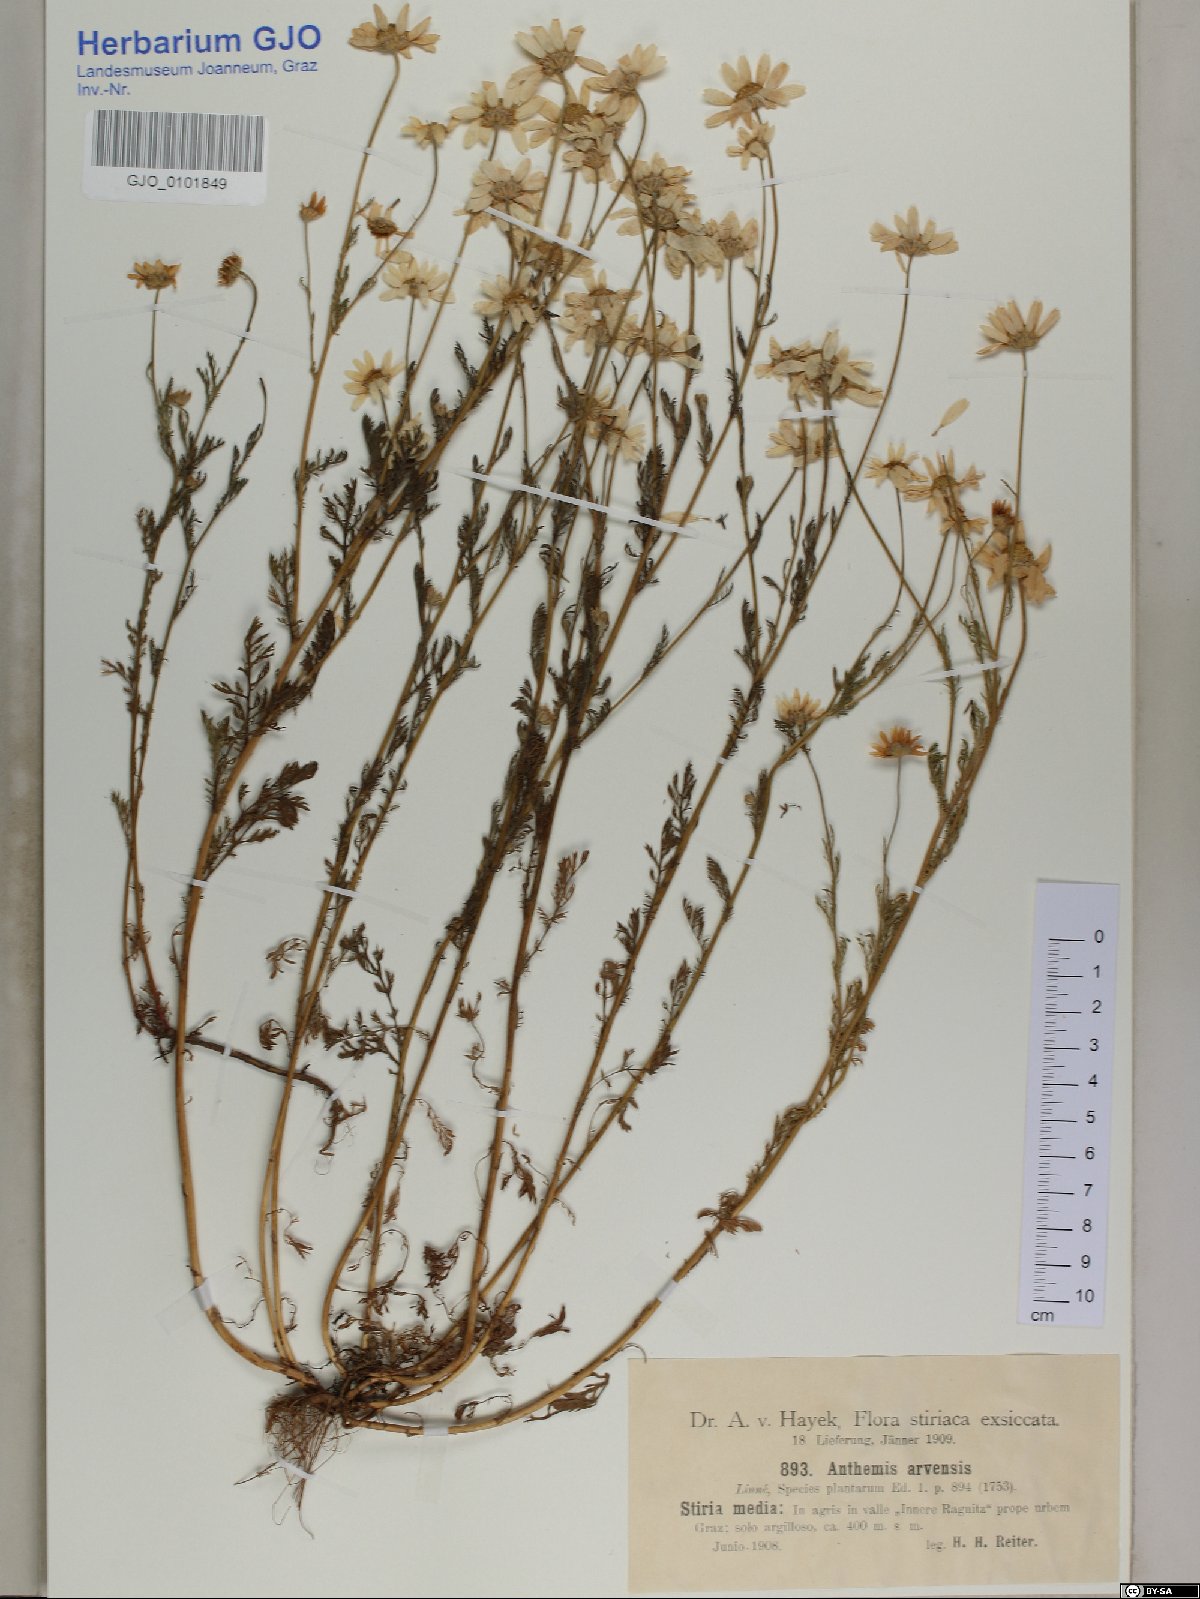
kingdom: Plantae
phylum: Tracheophyta
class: Magnoliopsida
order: Asterales
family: Asteraceae
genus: Anthemis
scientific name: Anthemis arvensis
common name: Corn chamomile
